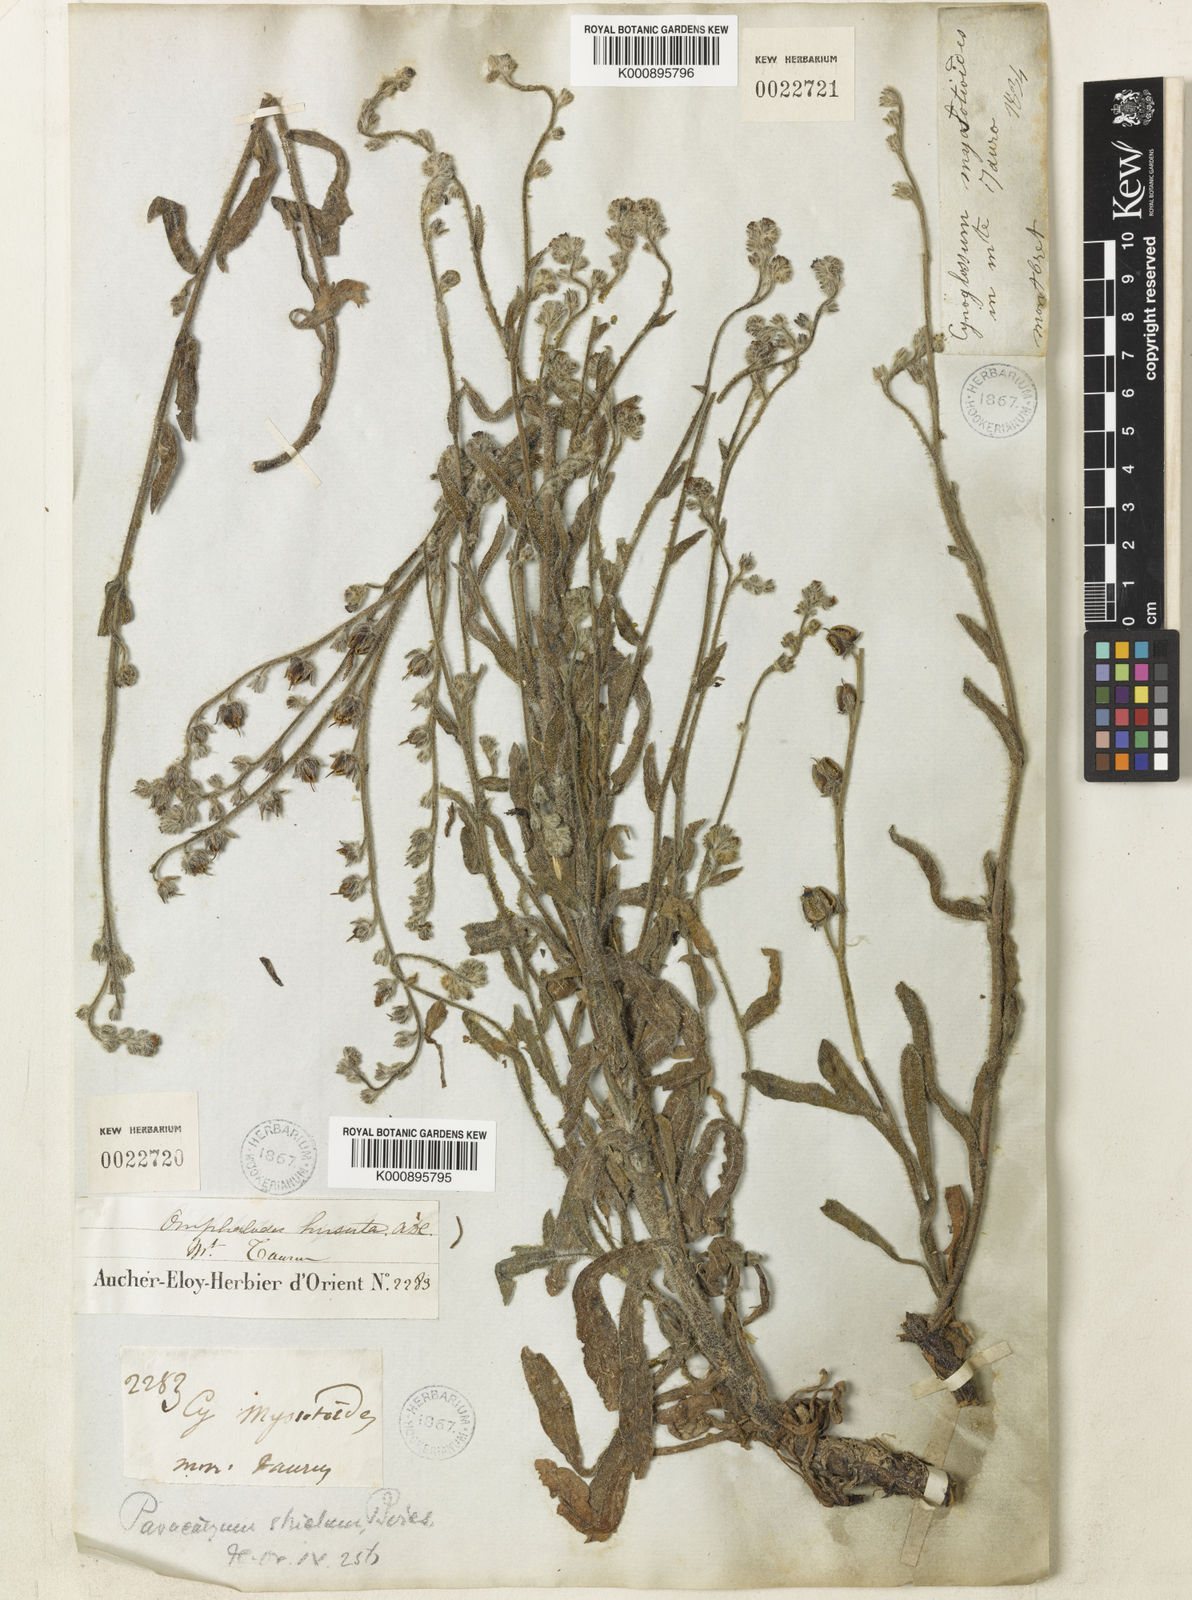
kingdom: Plantae
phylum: Tracheophyta
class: Magnoliopsida
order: Boraginales
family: Boraginaceae
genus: Paracaryum
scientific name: Paracaryum strictum
